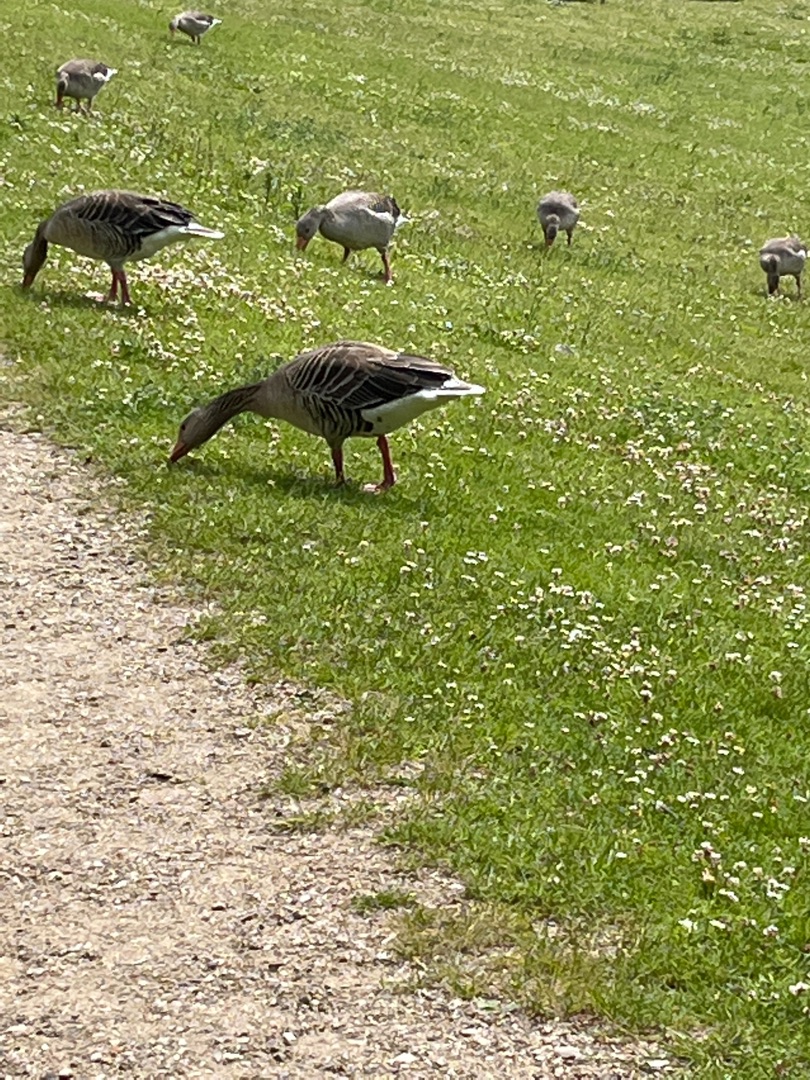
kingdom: Animalia
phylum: Chordata
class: Aves
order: Anseriformes
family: Anatidae
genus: Anser
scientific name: Anser anser
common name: Grågås
